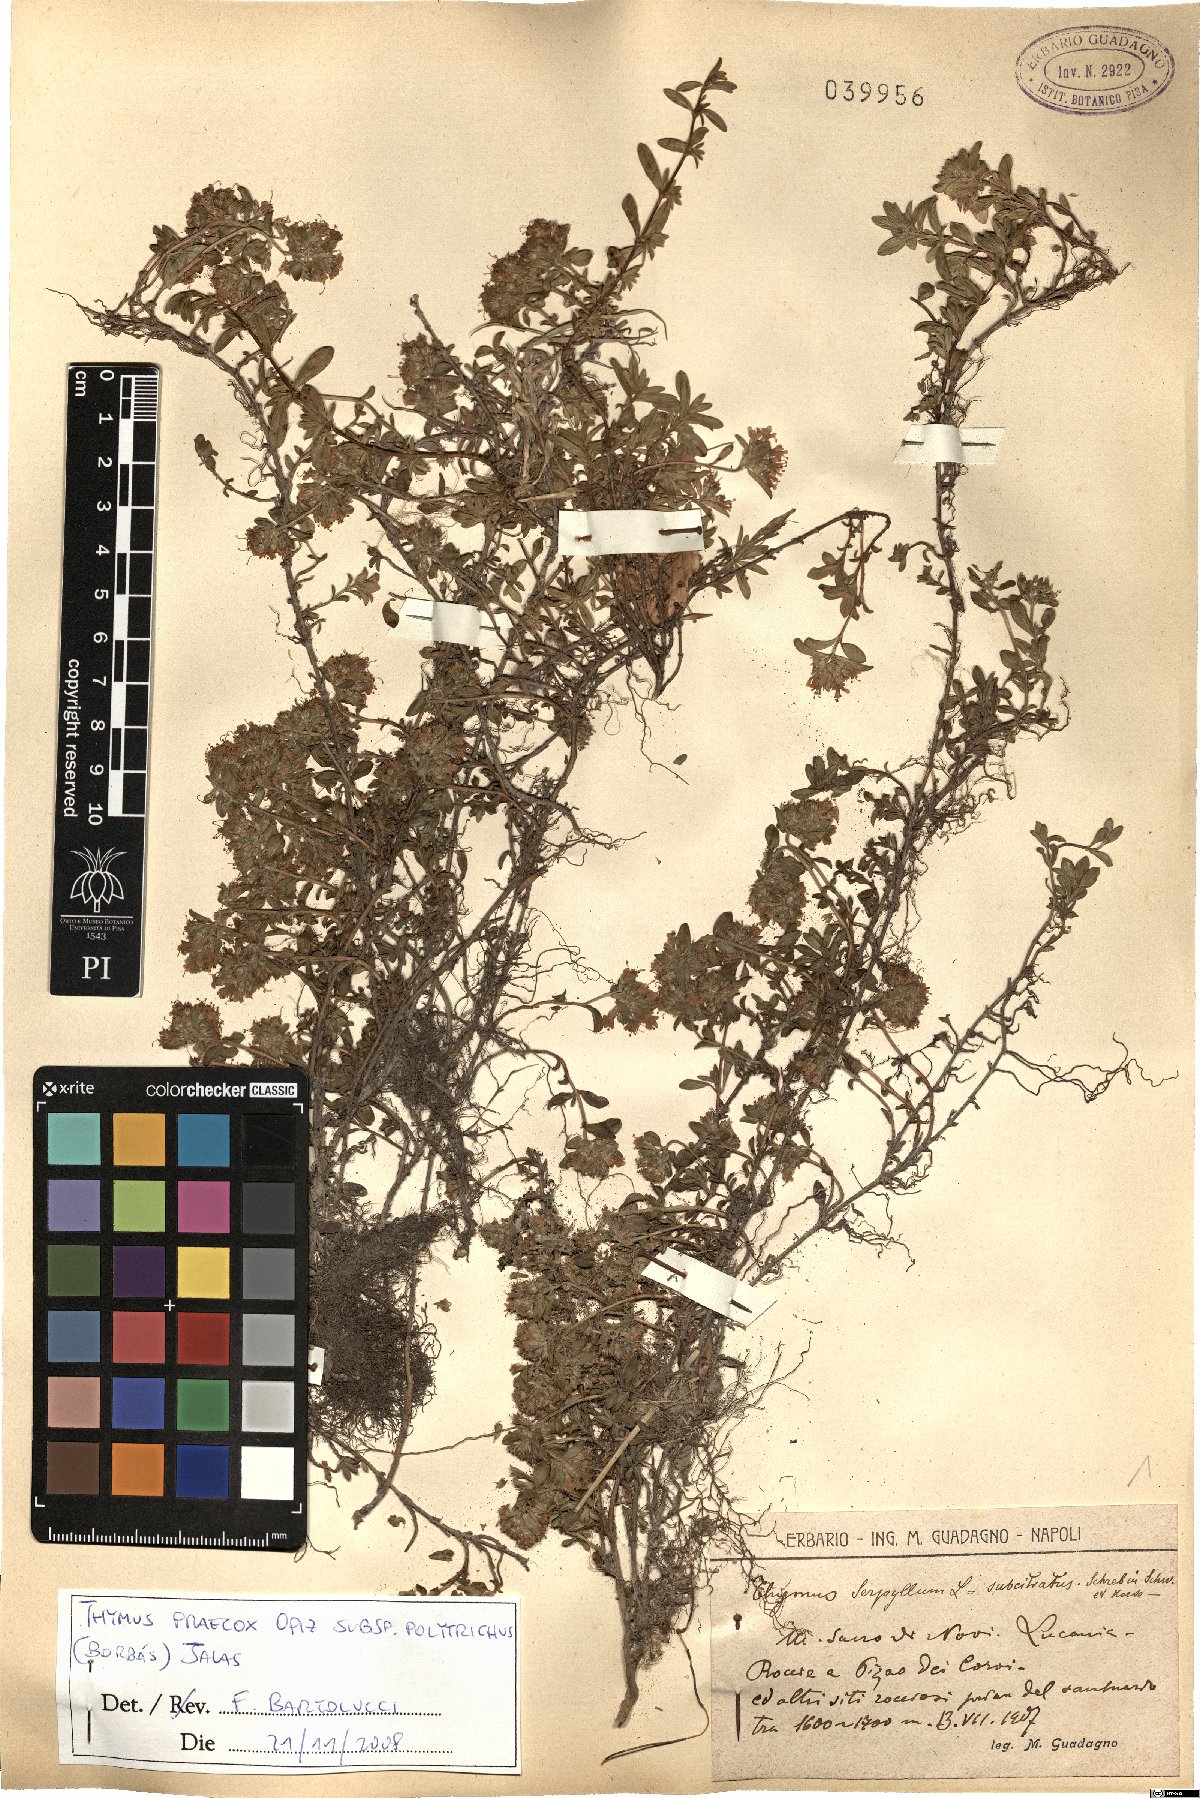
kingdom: Plantae
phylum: Tracheophyta
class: Magnoliopsida
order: Lamiales
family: Lamiaceae
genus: Thymus
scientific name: Thymus praecox
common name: Wild thyme
